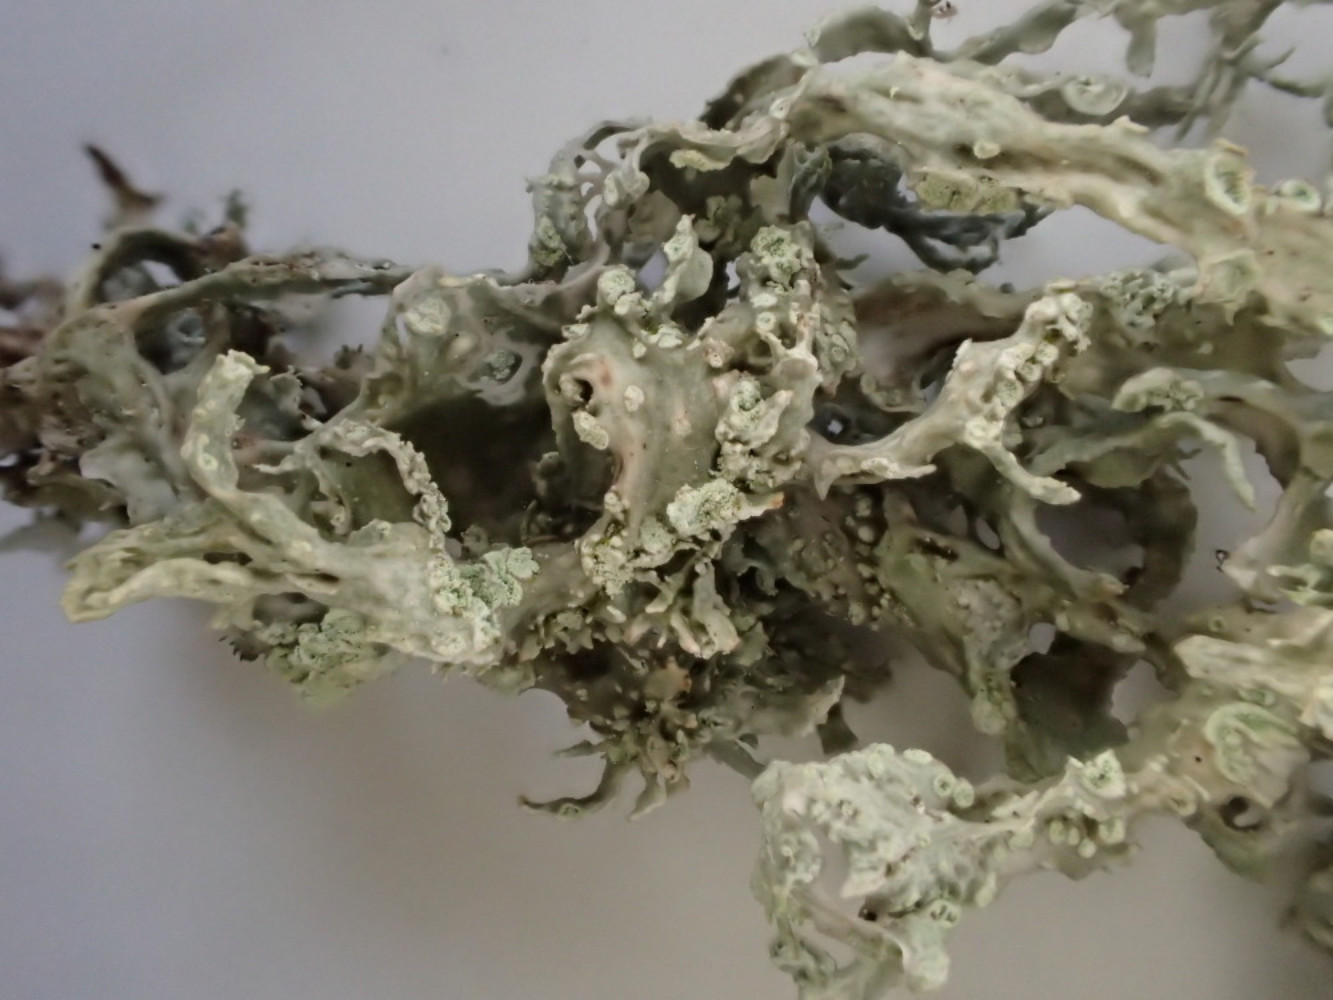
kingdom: Fungi
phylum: Ascomycota
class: Lecanoromycetes
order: Lecanorales
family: Ramalinaceae
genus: Ramalina
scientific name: Ramalina farinacea
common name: melet grenlav
